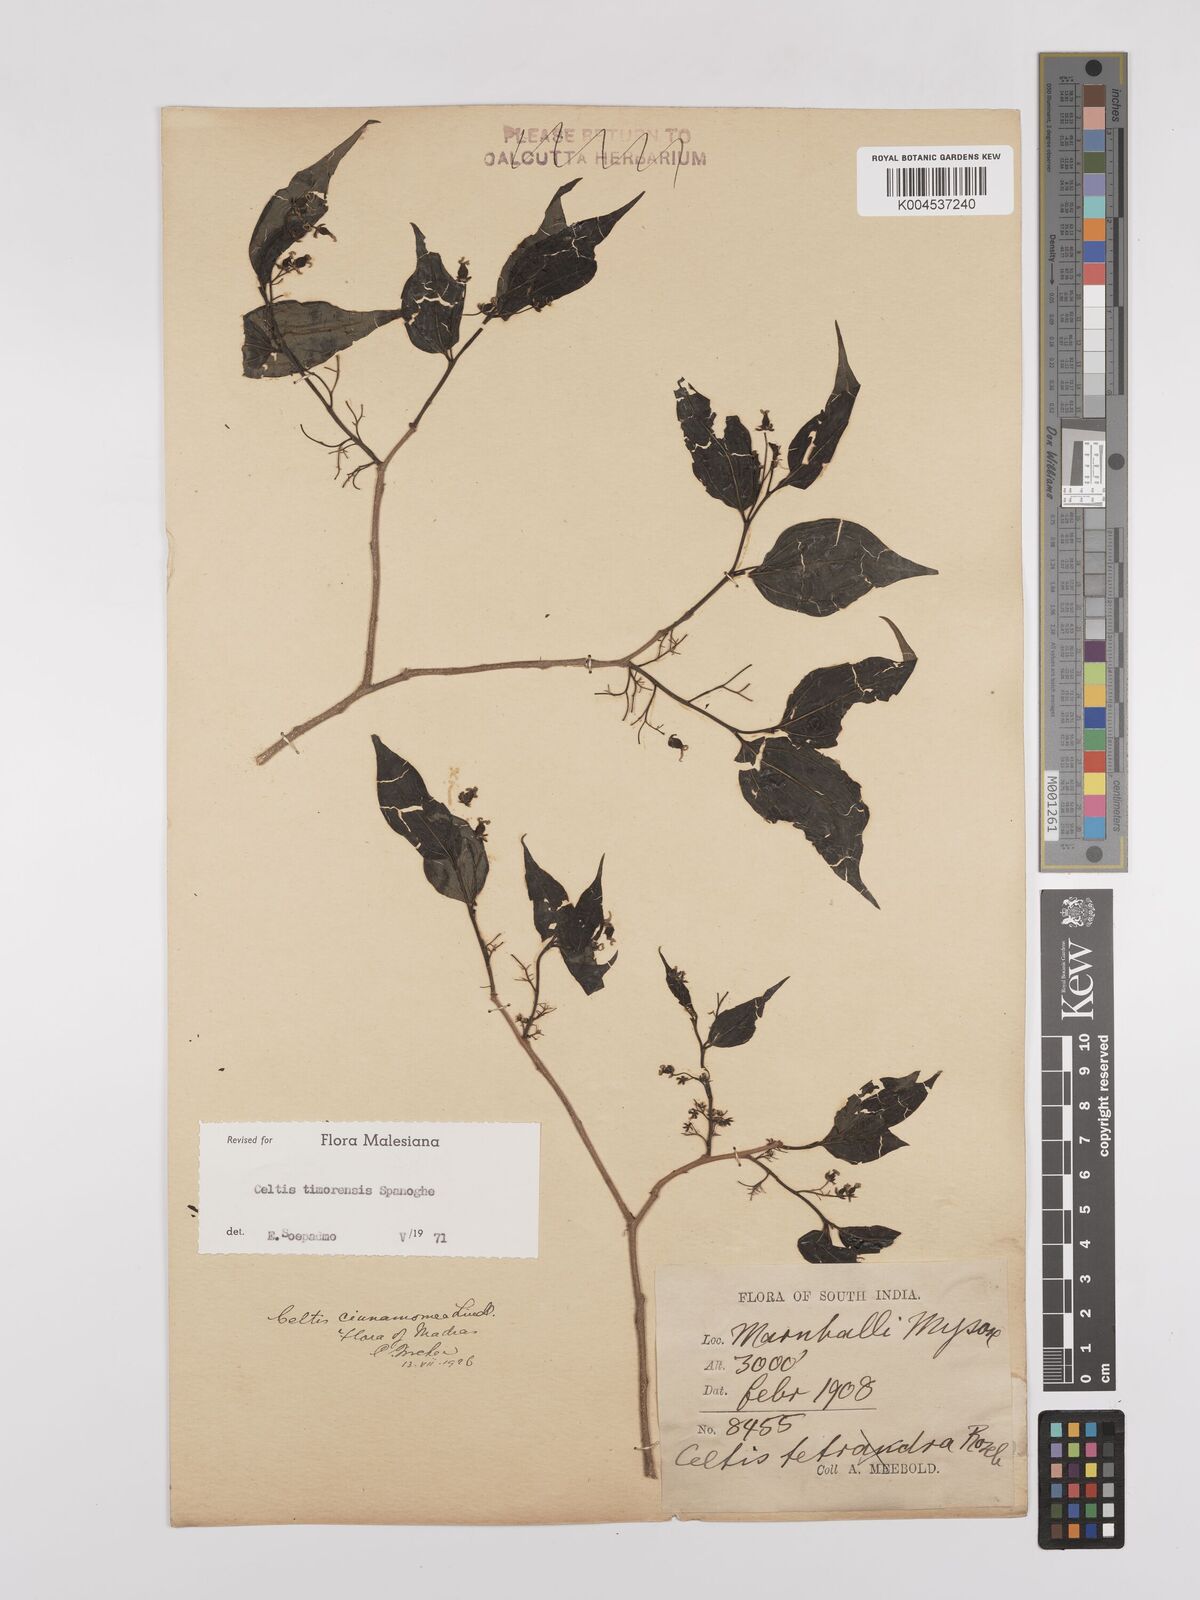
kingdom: Plantae
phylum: Tracheophyta
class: Magnoliopsida
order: Rosales
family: Cannabaceae
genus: Celtis
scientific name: Celtis timorensis
